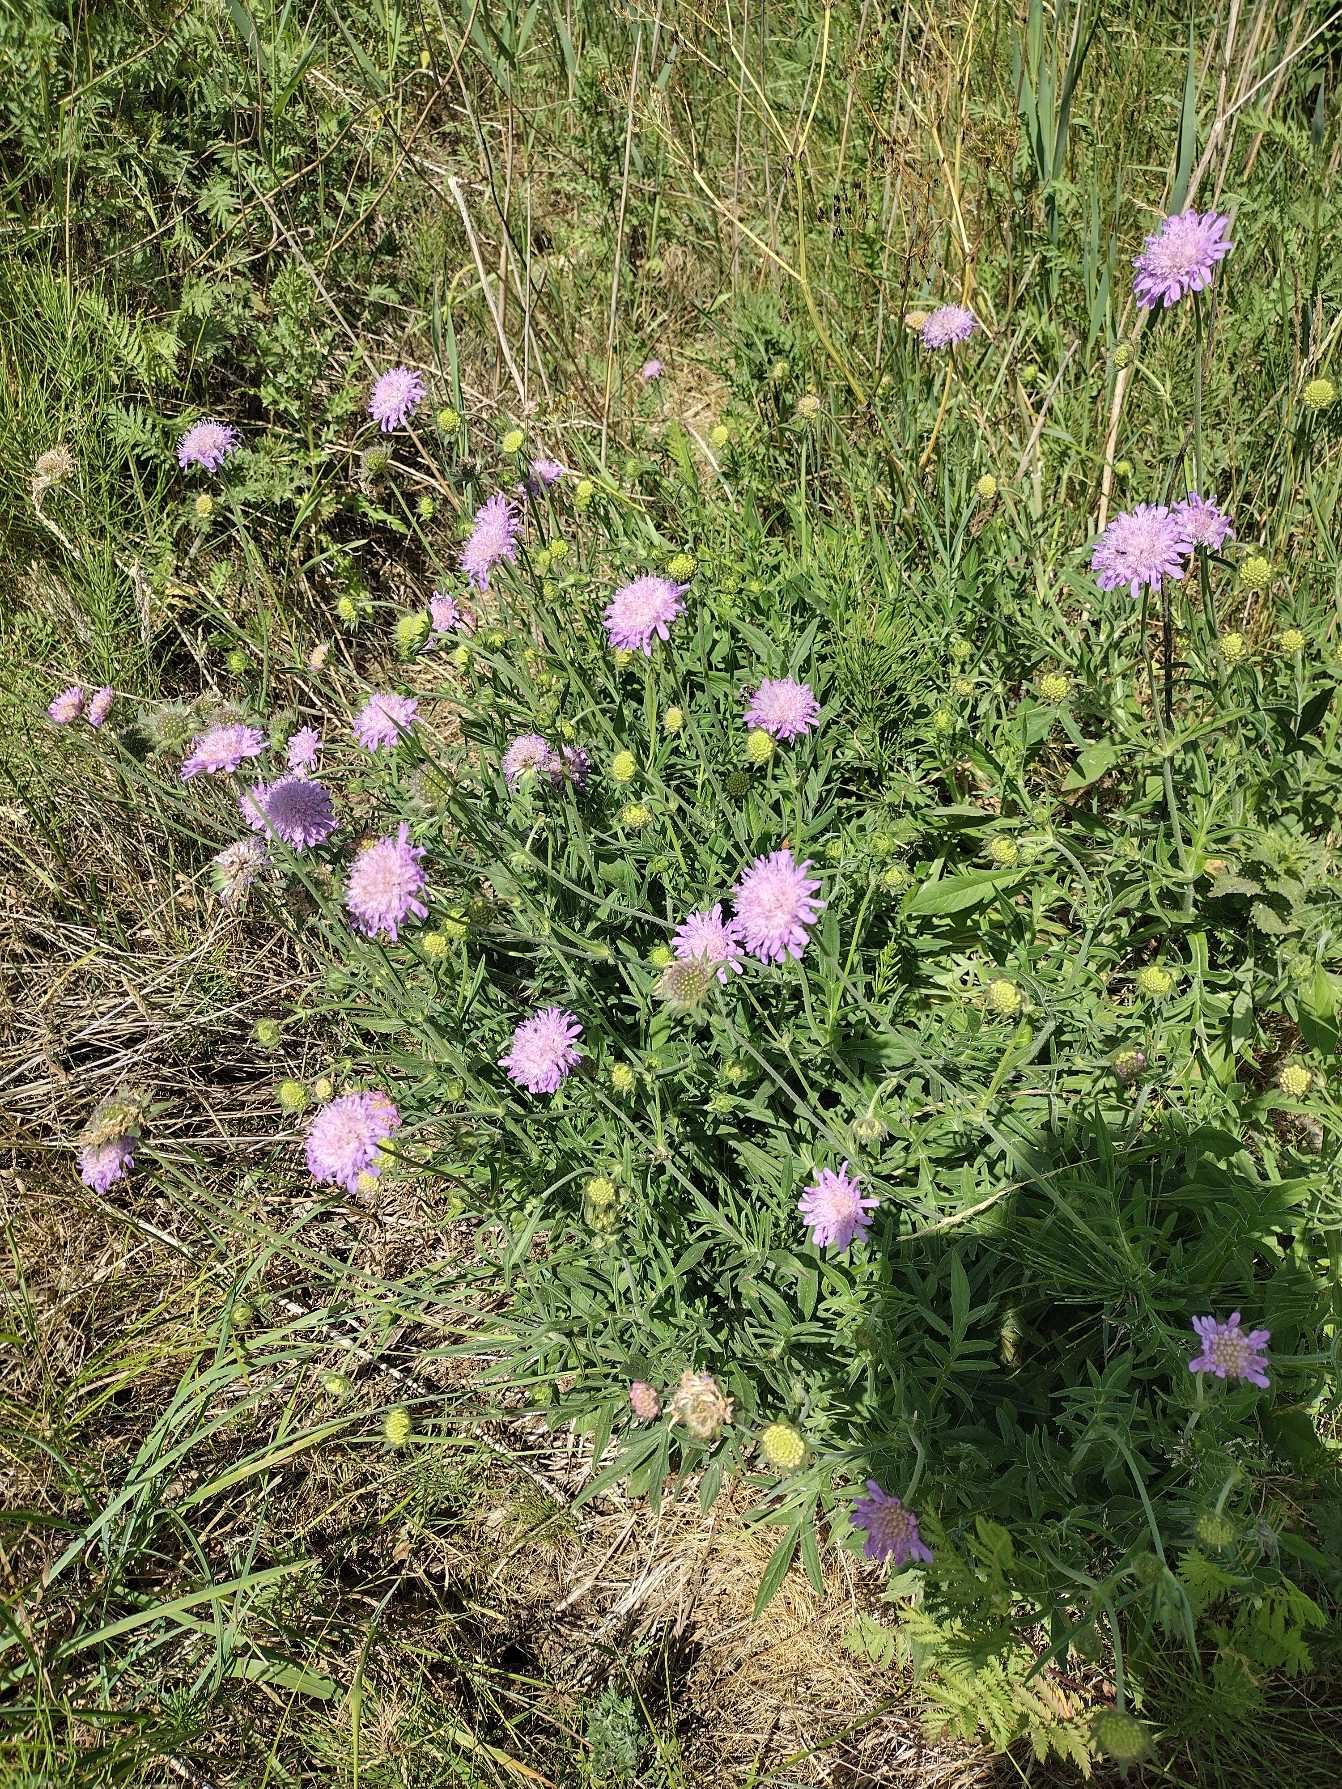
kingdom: Plantae
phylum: Tracheophyta
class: Magnoliopsida
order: Dipsacales
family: Caprifoliaceae
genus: Knautia
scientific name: Knautia arvensis
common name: Blåhat
